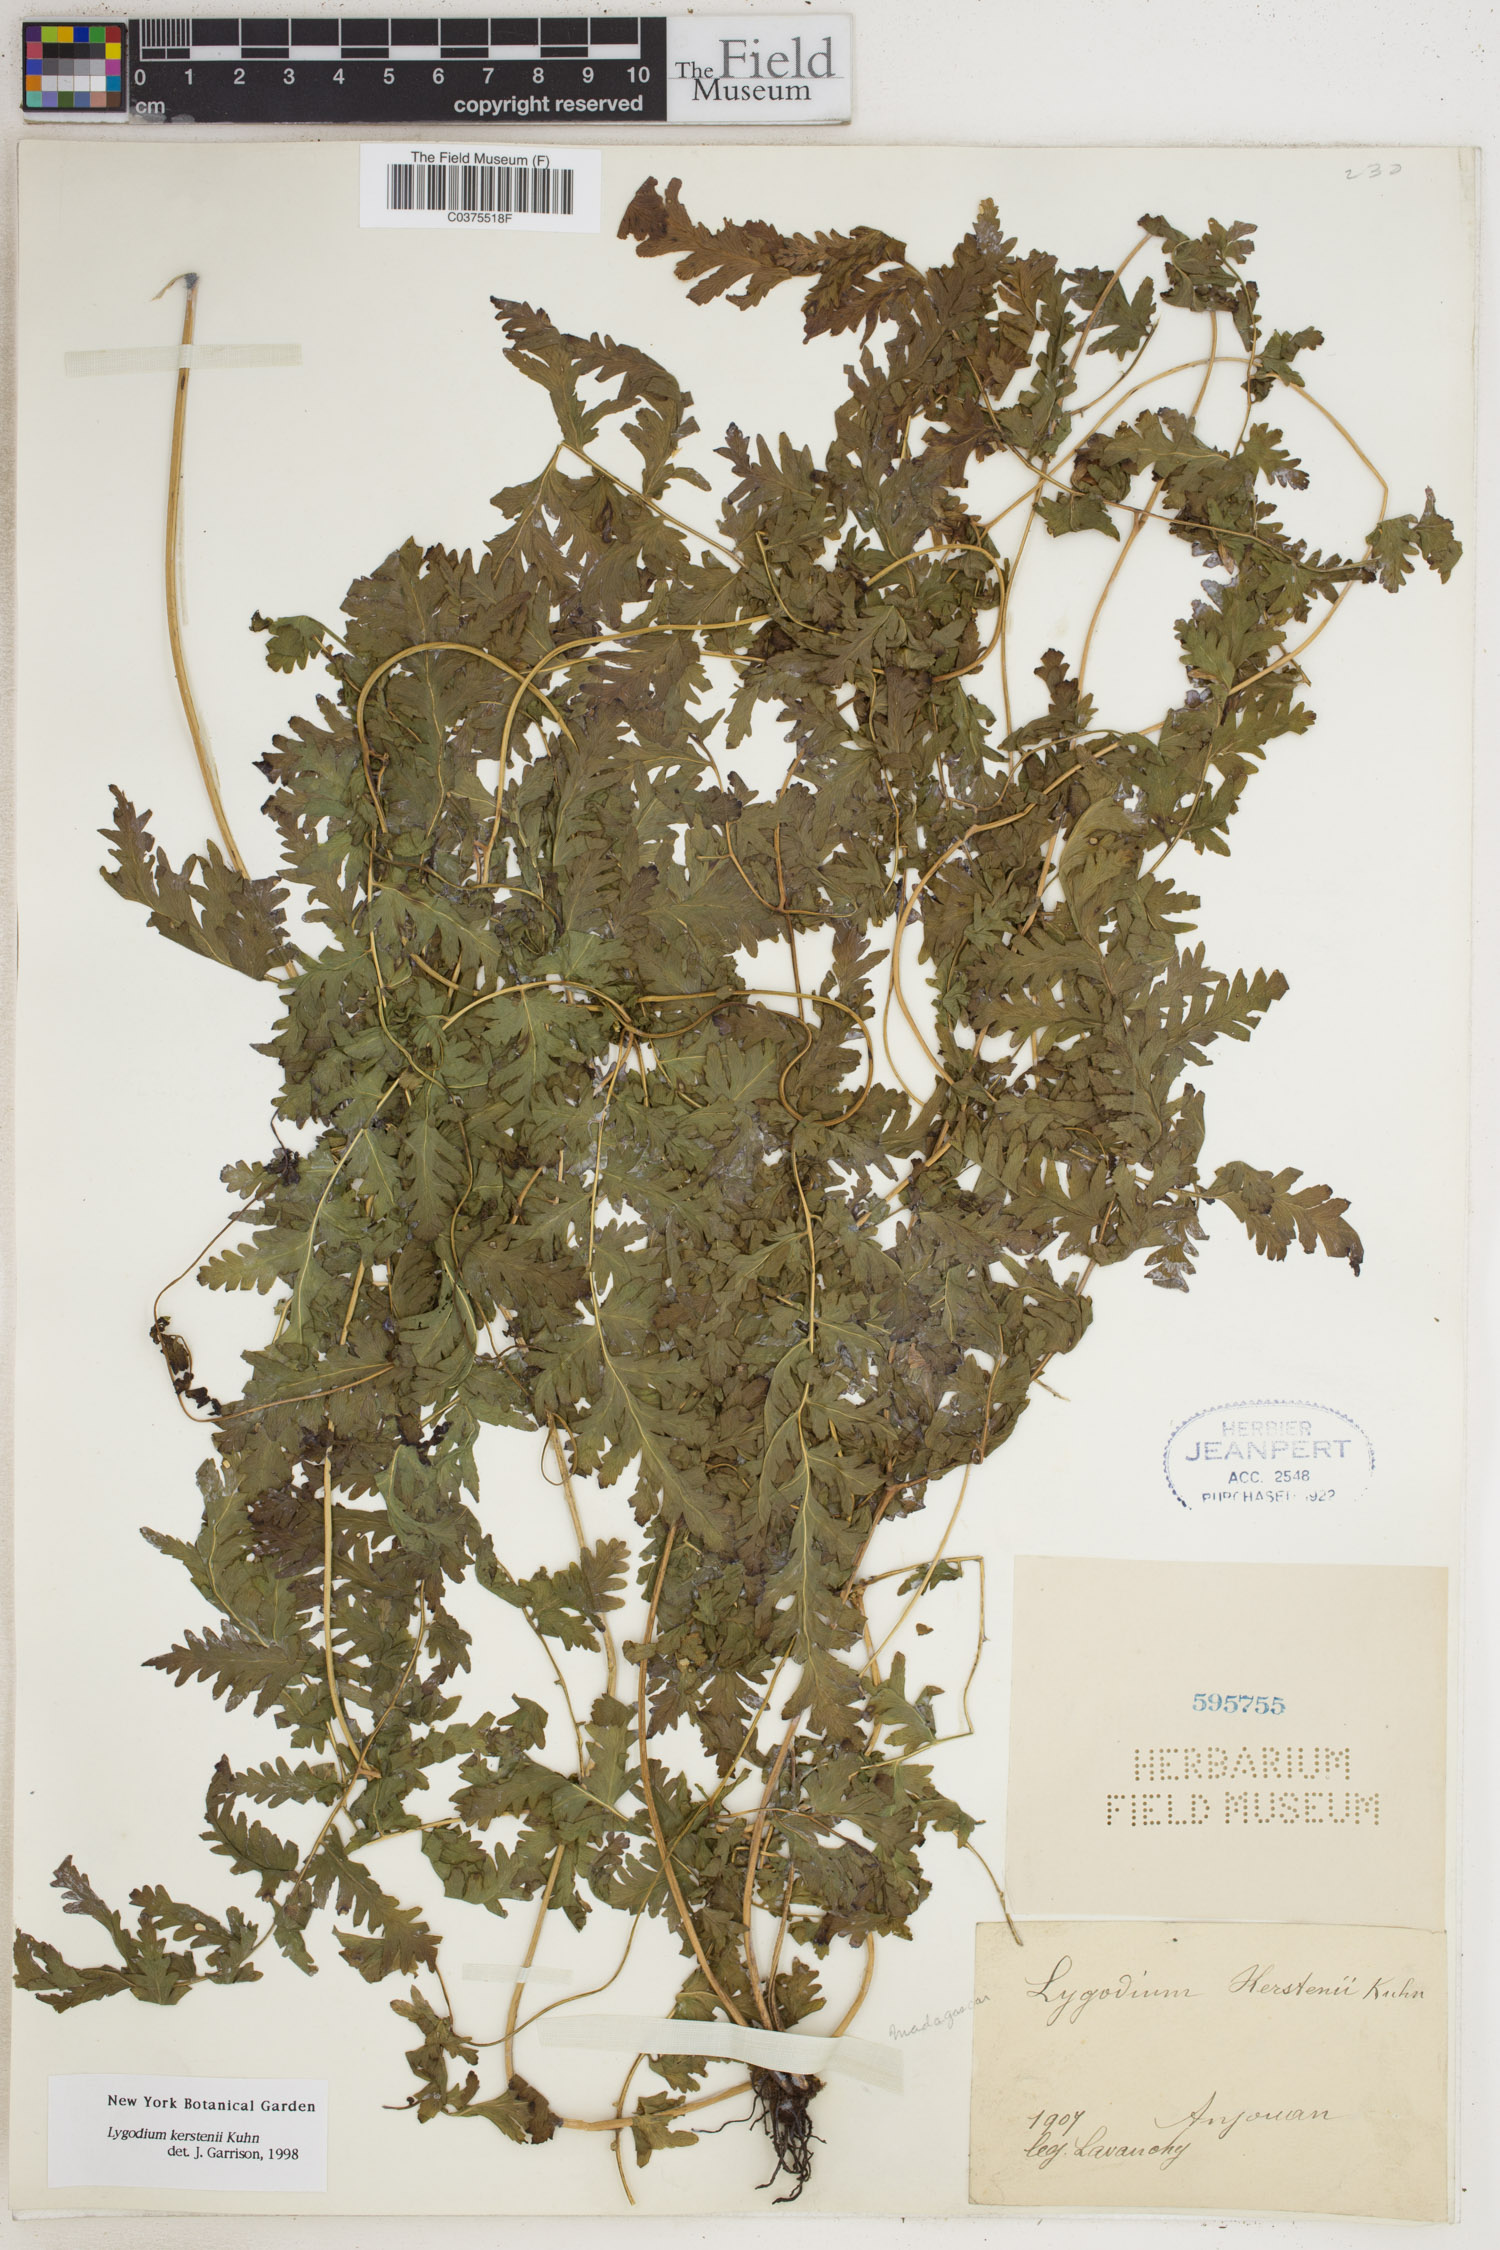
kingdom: Plantae
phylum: Tracheophyta
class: Polypodiopsida
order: Schizaeales
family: Lygodiaceae
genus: Lygodium
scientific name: Lygodium kerstenii
